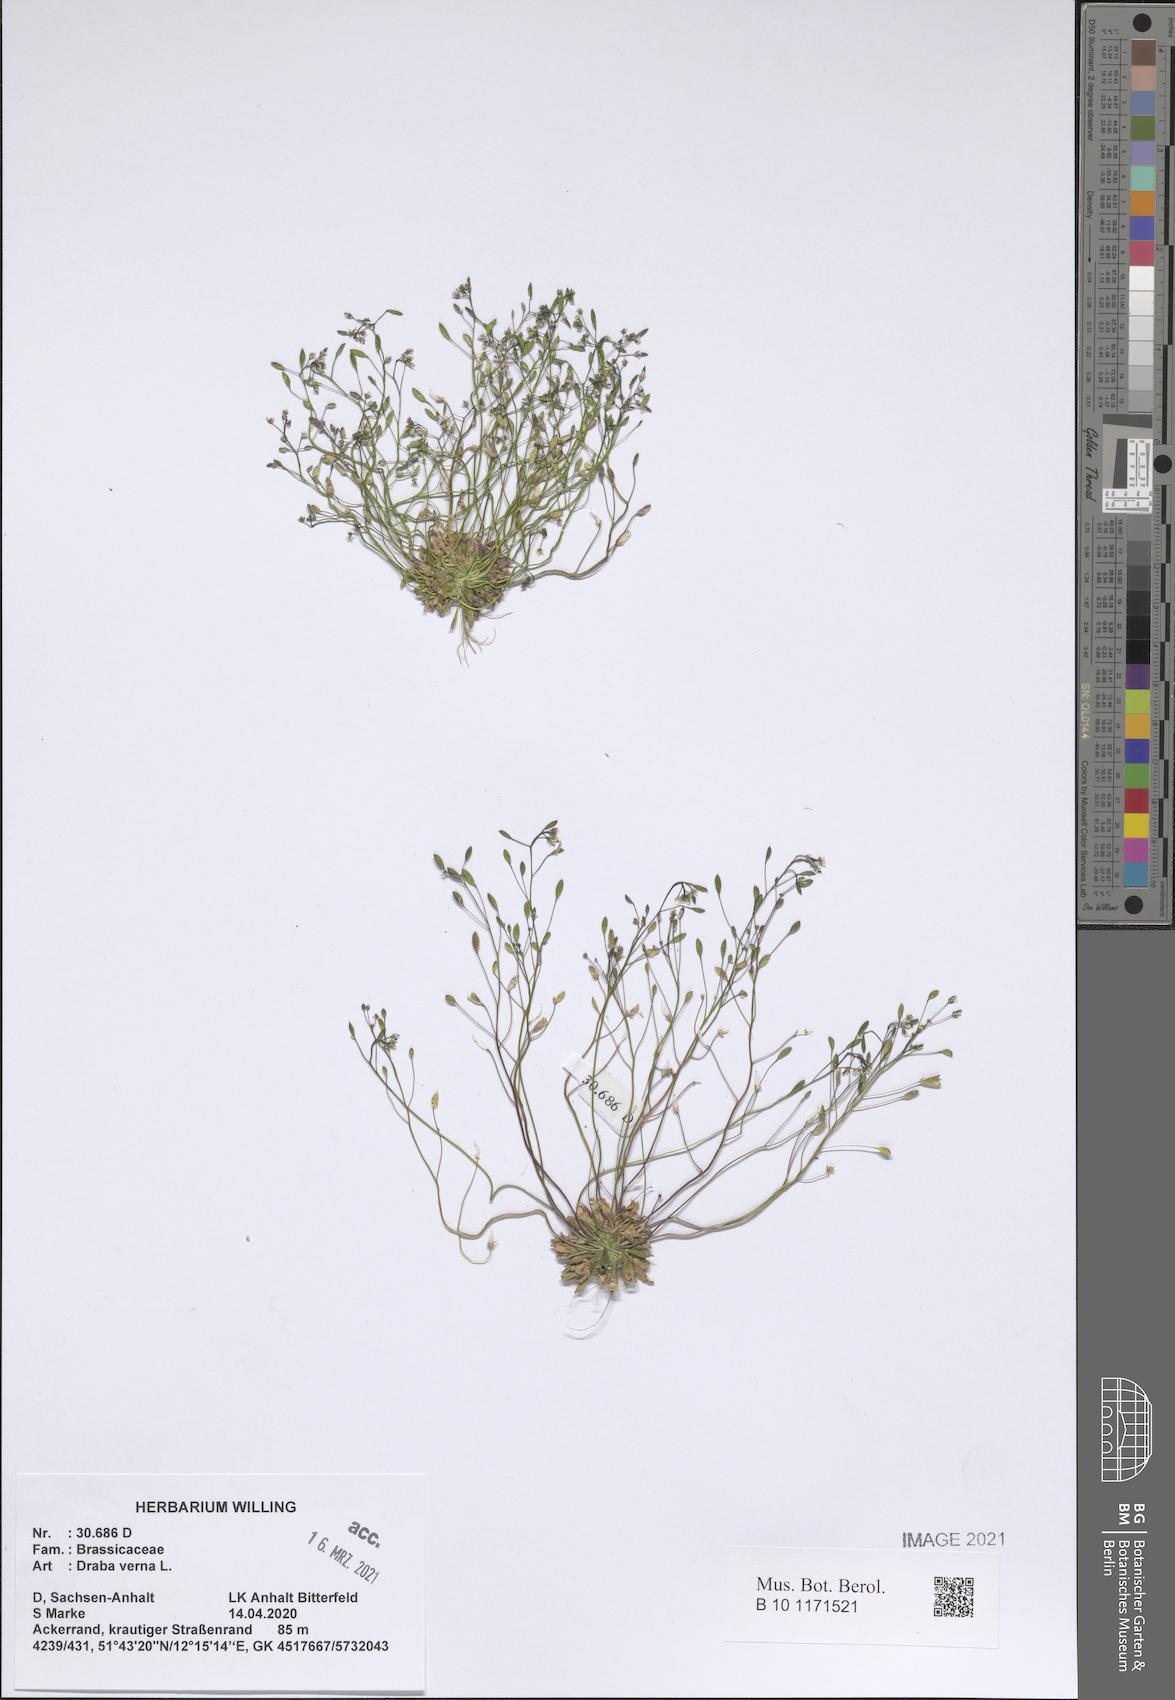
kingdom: Plantae
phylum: Tracheophyta
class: Magnoliopsida
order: Brassicales
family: Brassicaceae
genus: Draba
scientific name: Draba verna
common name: Spring draba
